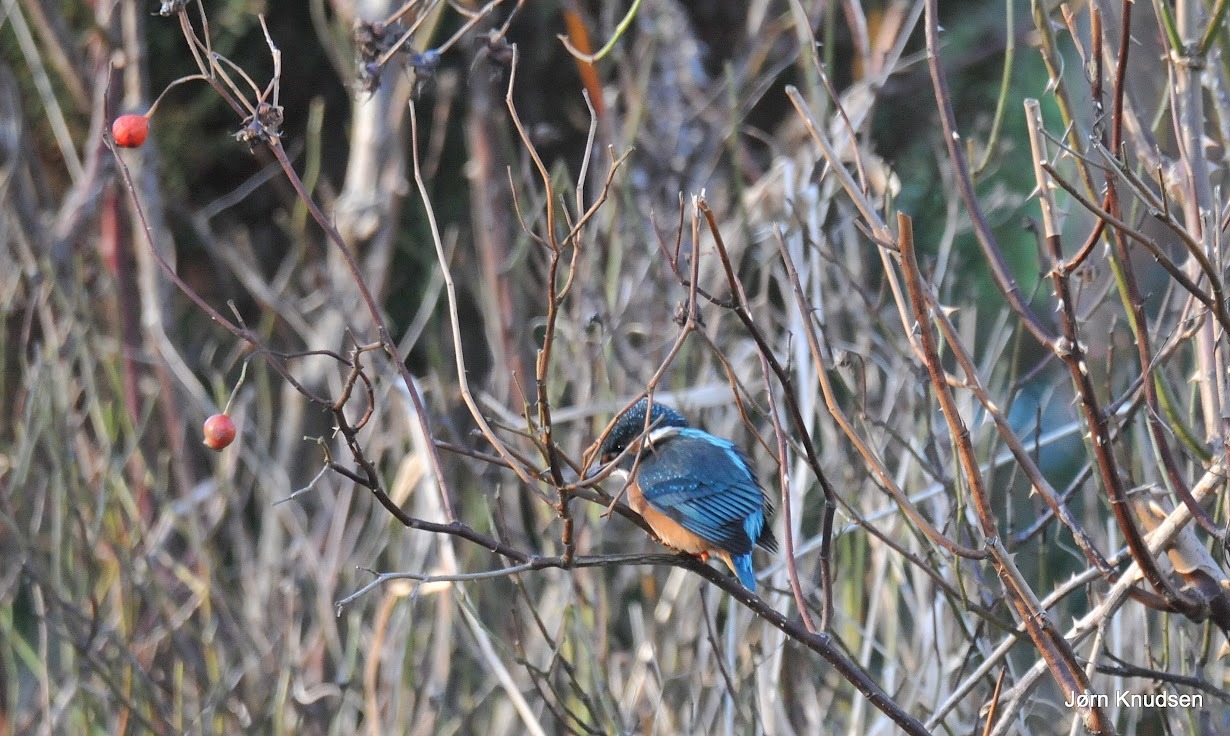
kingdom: Animalia
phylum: Chordata
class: Aves
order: Coraciiformes
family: Alcedinidae
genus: Alcedo
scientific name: Alcedo atthis
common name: Isfugl
